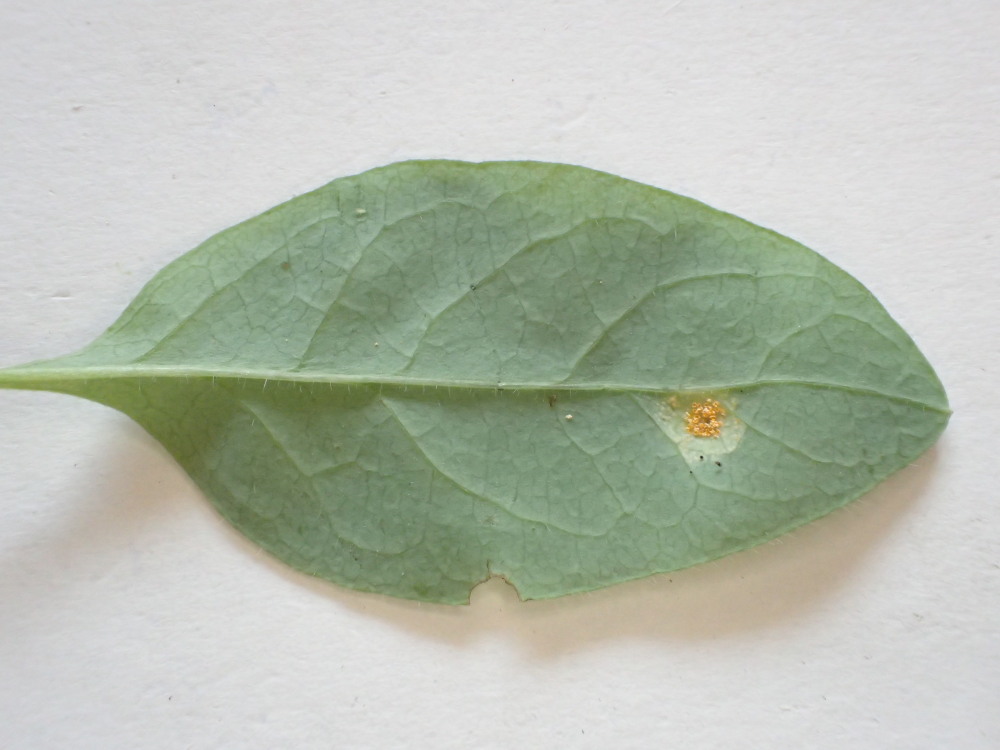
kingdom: Fungi
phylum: Basidiomycota
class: Pucciniomycetes
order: Pucciniales
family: Pucciniaceae
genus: Puccinia
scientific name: Puccinia festucae
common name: gedeblad-tvecellerust
